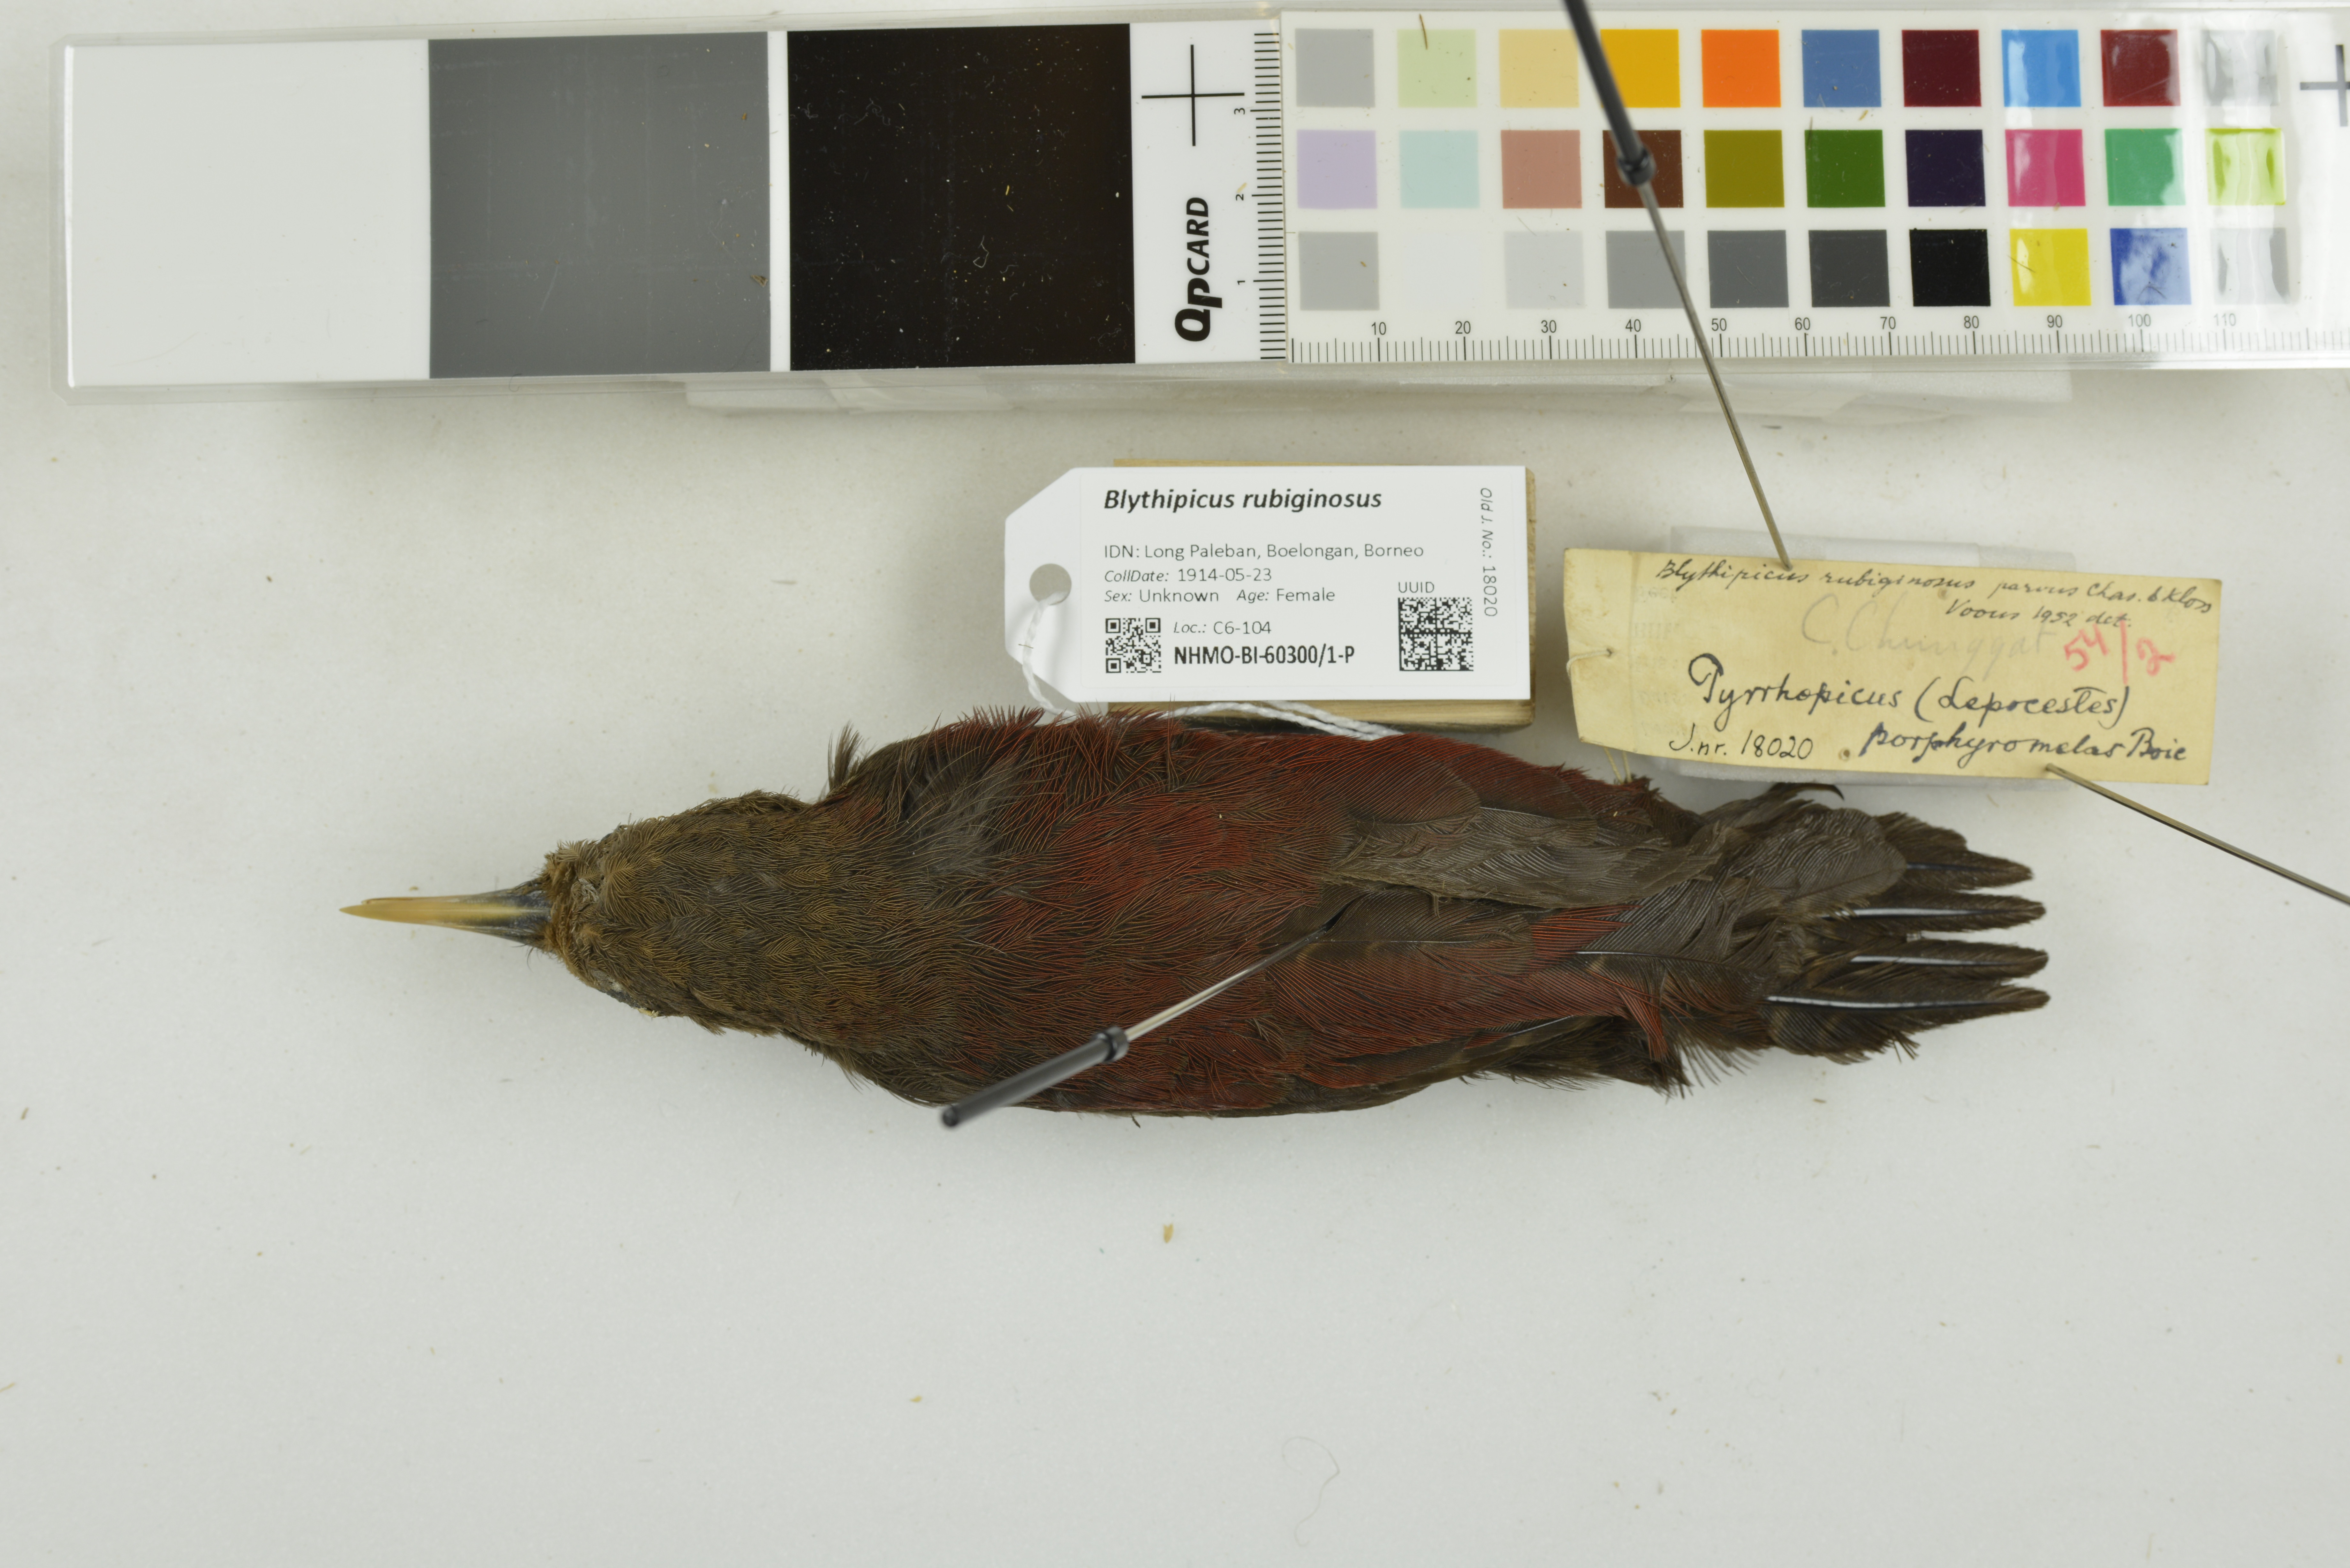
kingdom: Animalia
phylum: Chordata
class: Aves
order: Piciformes
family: Picidae
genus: Blythipicus
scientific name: Blythipicus rubiginosus
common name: Maroon woodpecker
